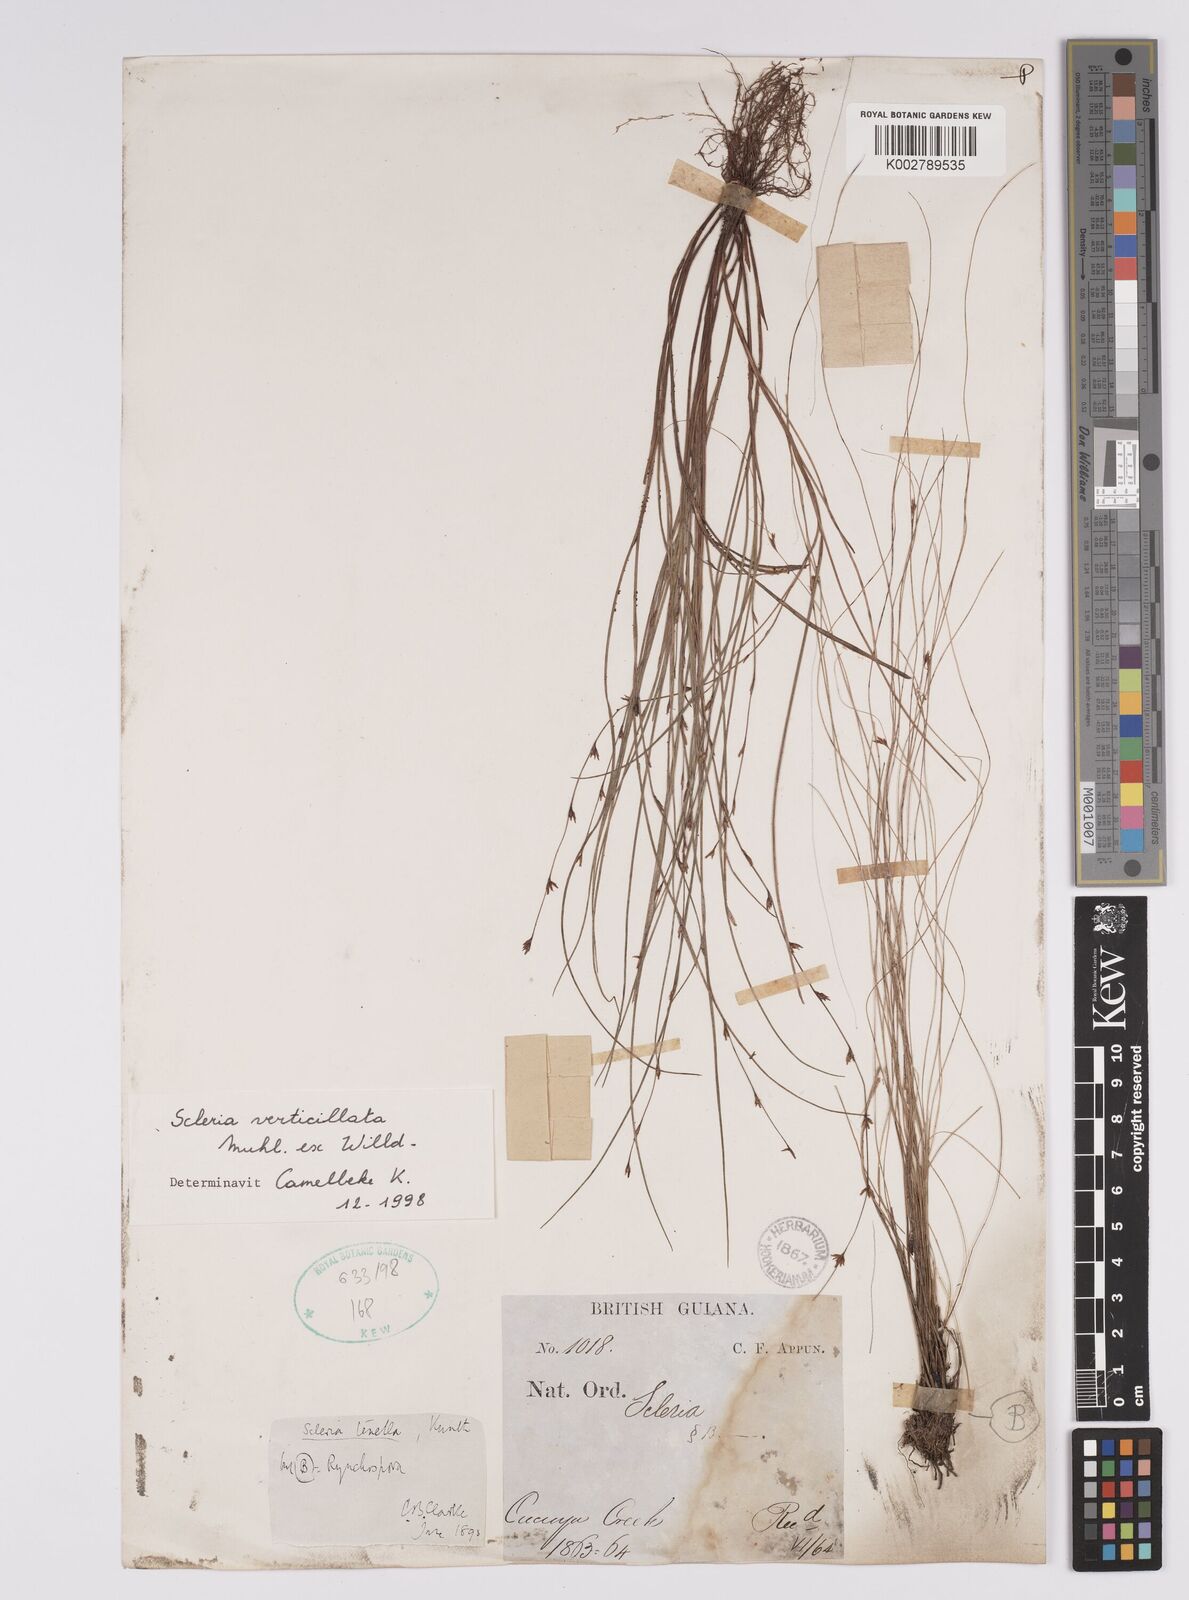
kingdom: Plantae
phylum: Tracheophyta
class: Liliopsida
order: Poales
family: Cyperaceae
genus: Scleria
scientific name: Scleria verticillata
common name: Low nutrush
